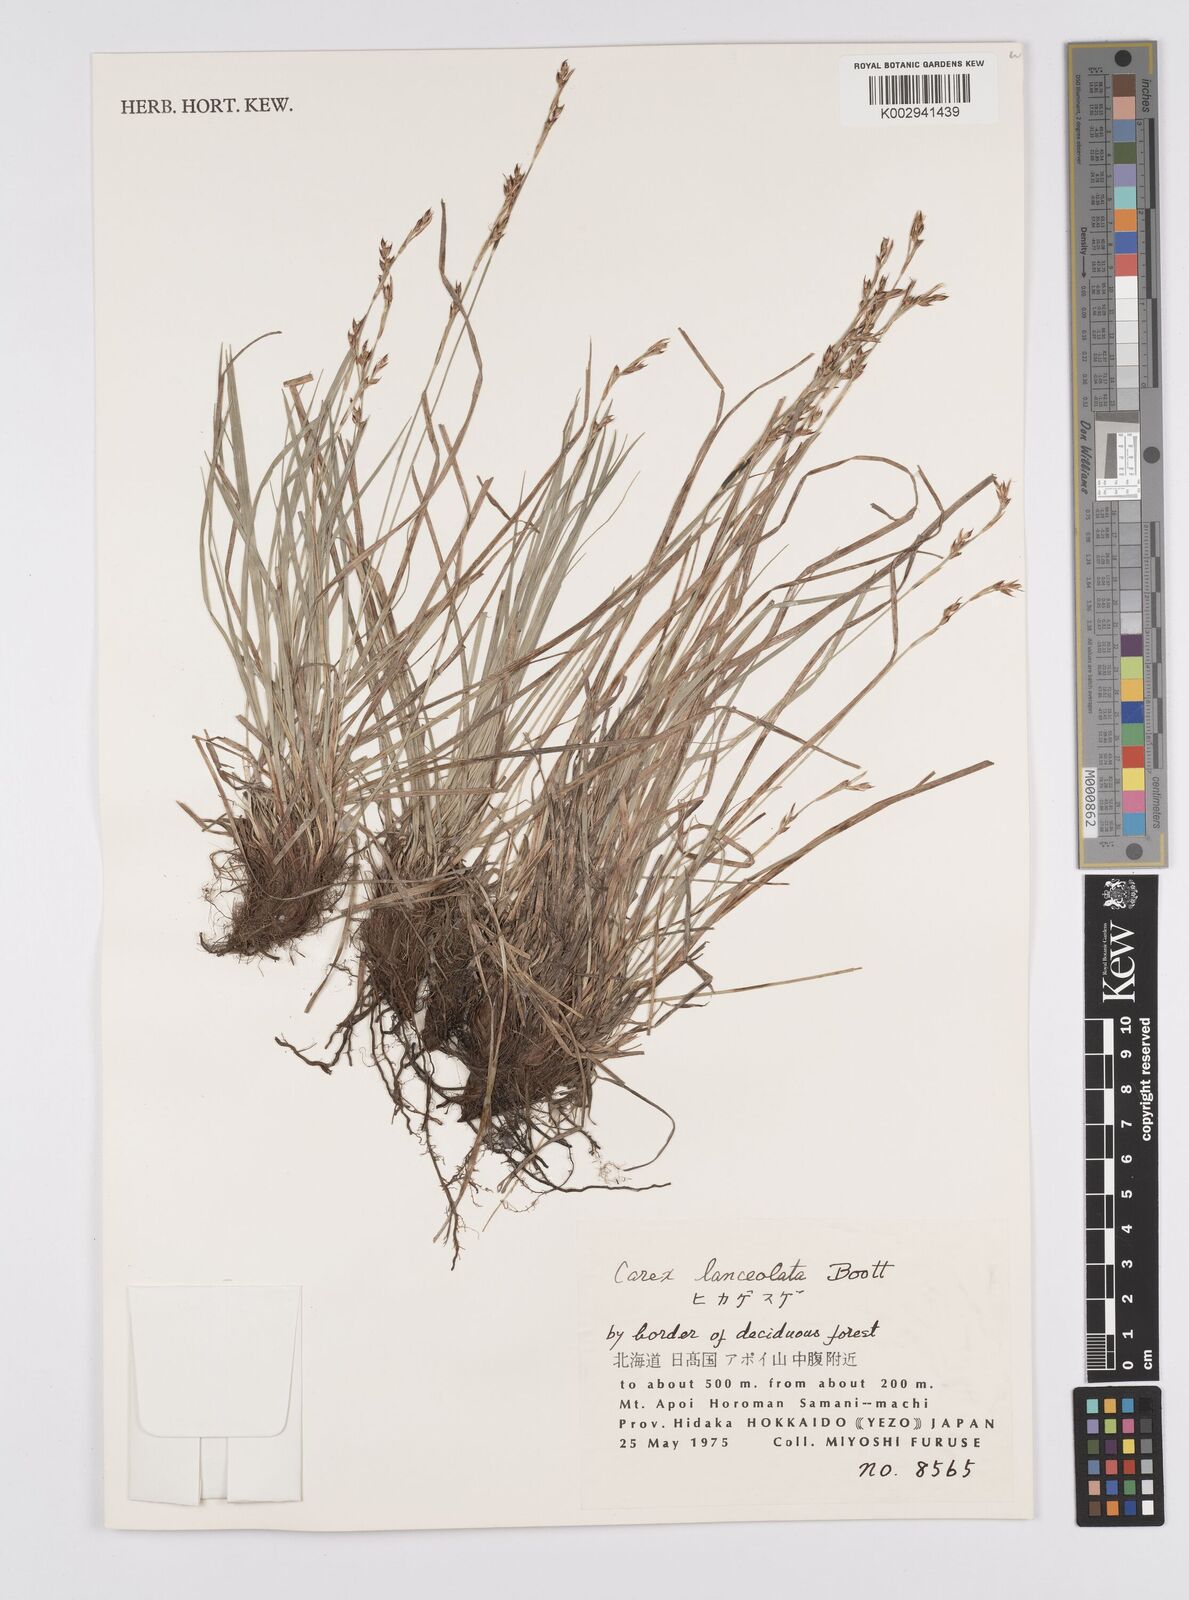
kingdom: Plantae
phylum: Tracheophyta
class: Liliopsida
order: Poales
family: Cyperaceae
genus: Carex
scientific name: Carex lanceolata
